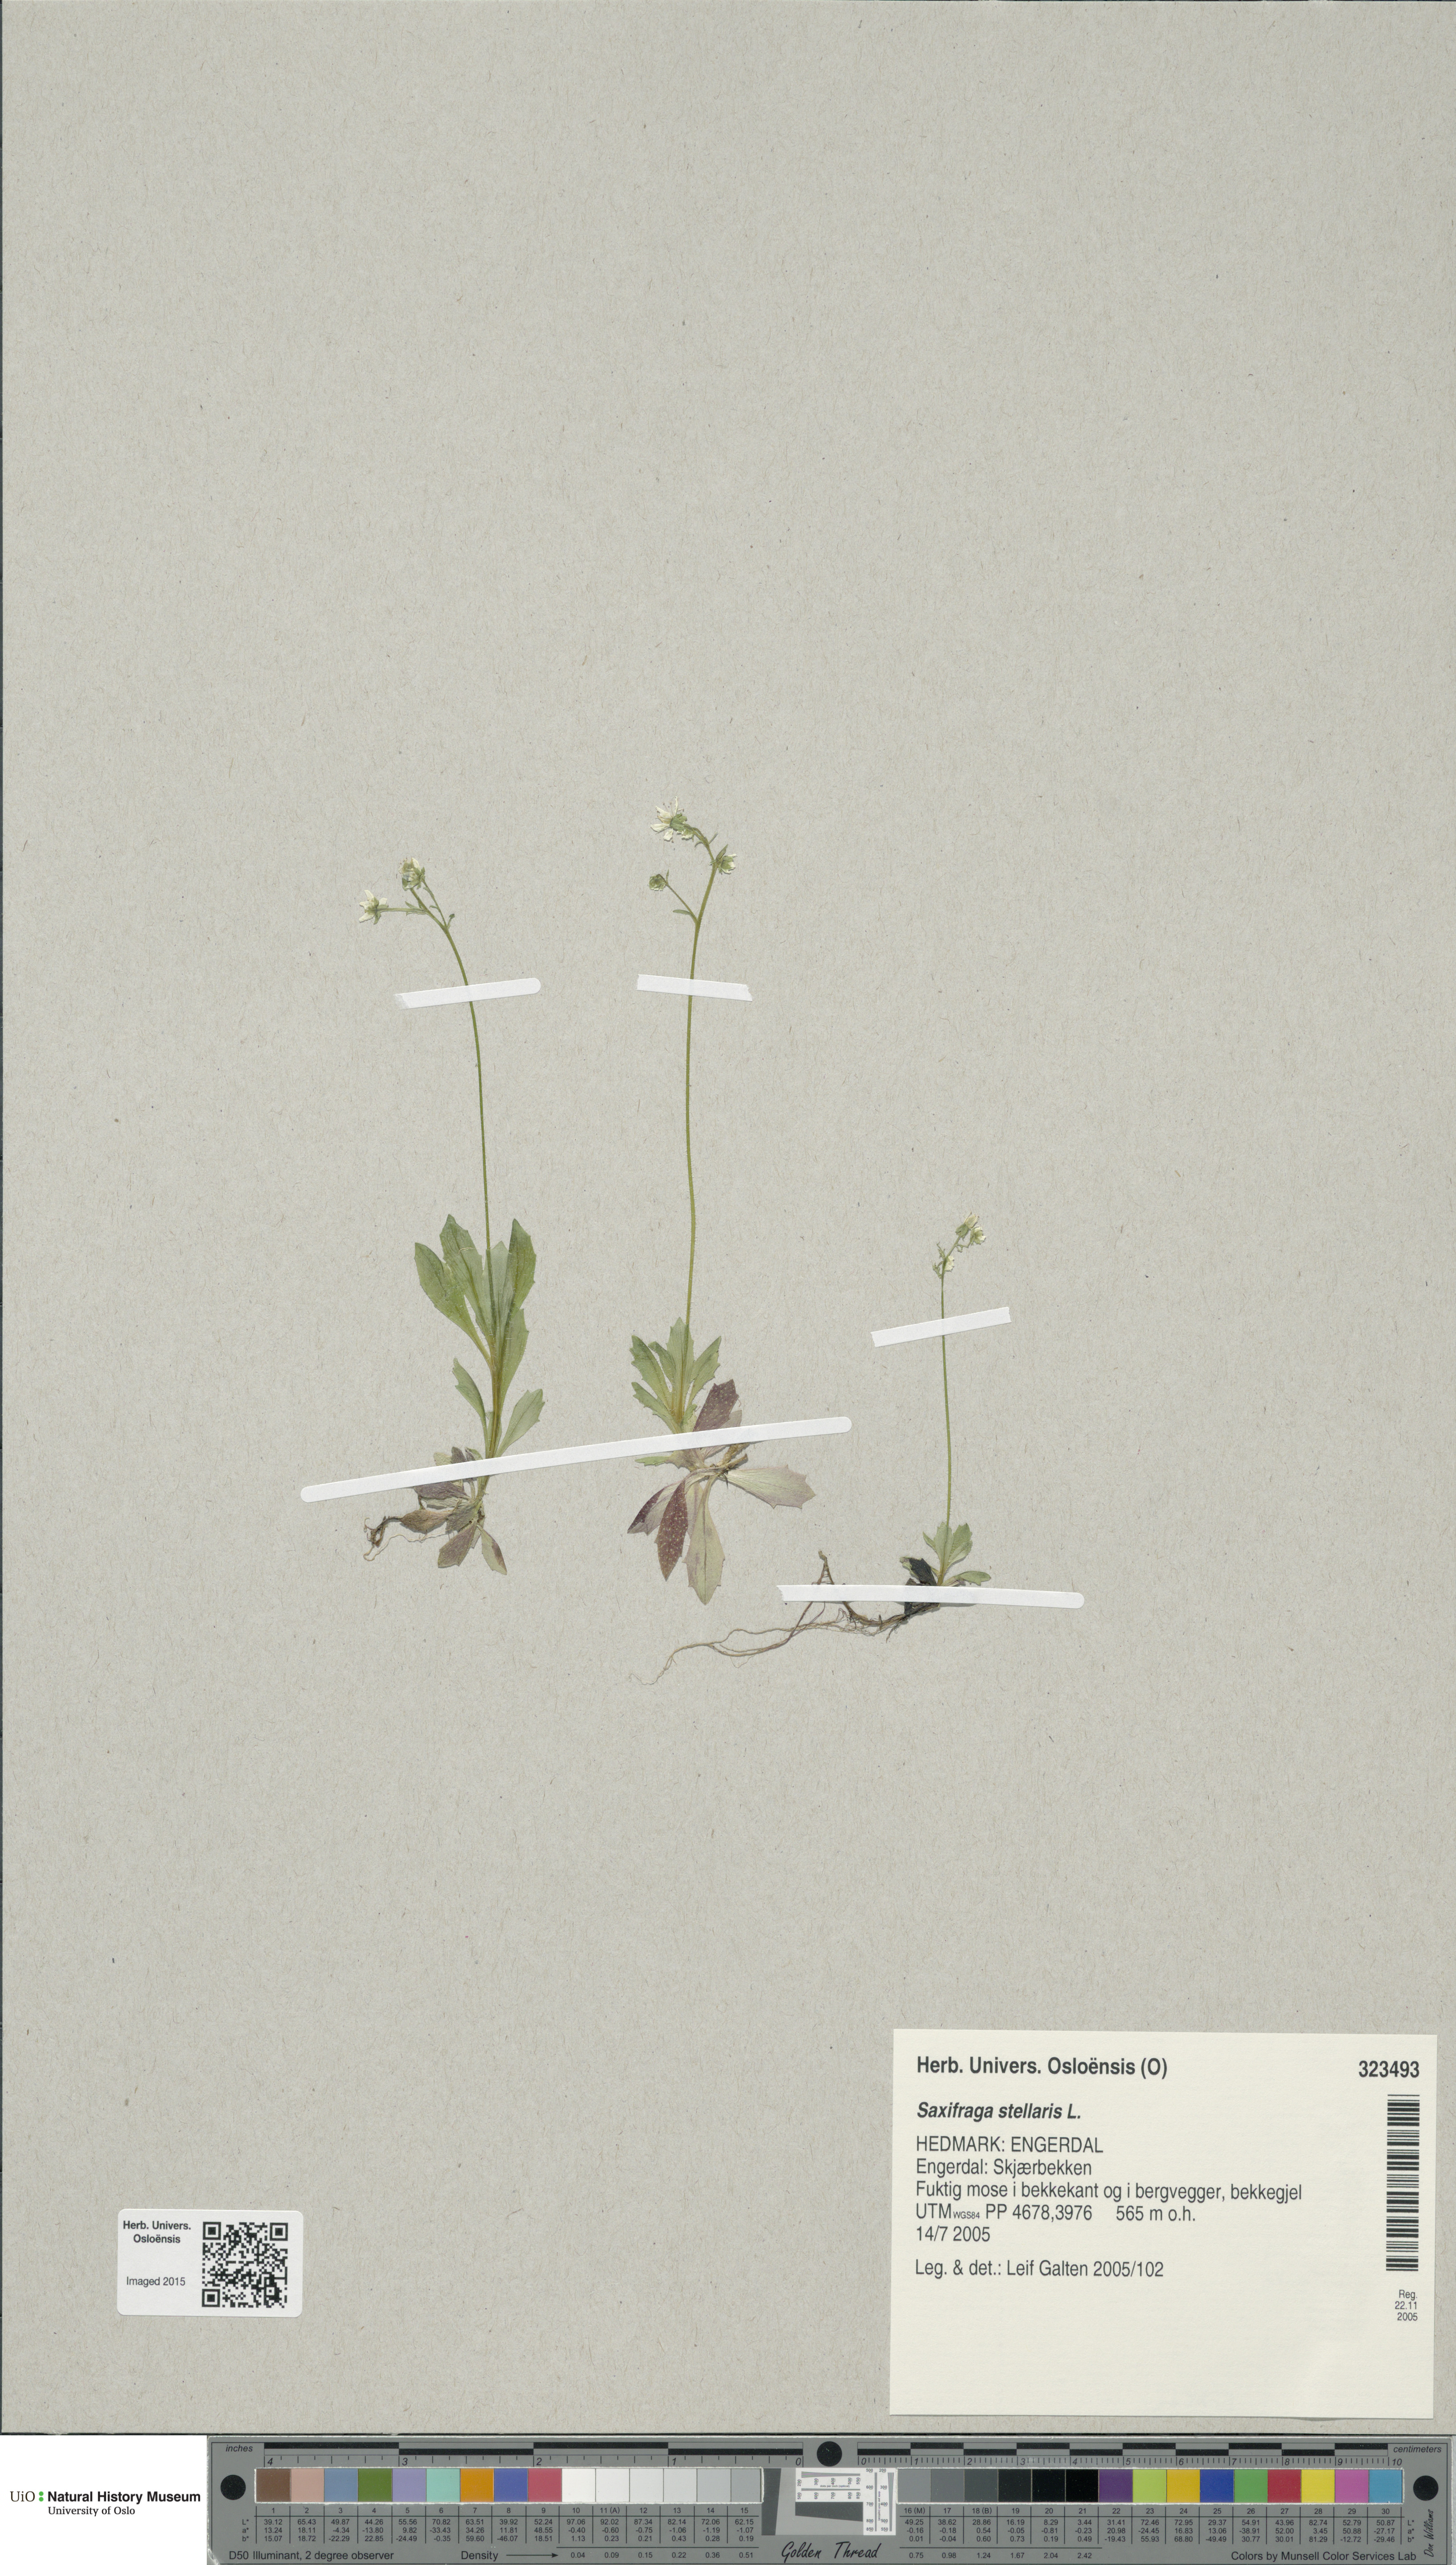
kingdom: Plantae
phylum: Tracheophyta
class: Magnoliopsida
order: Saxifragales
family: Saxifragaceae
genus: Micranthes
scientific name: Micranthes stellaris
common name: Starry saxifrage
